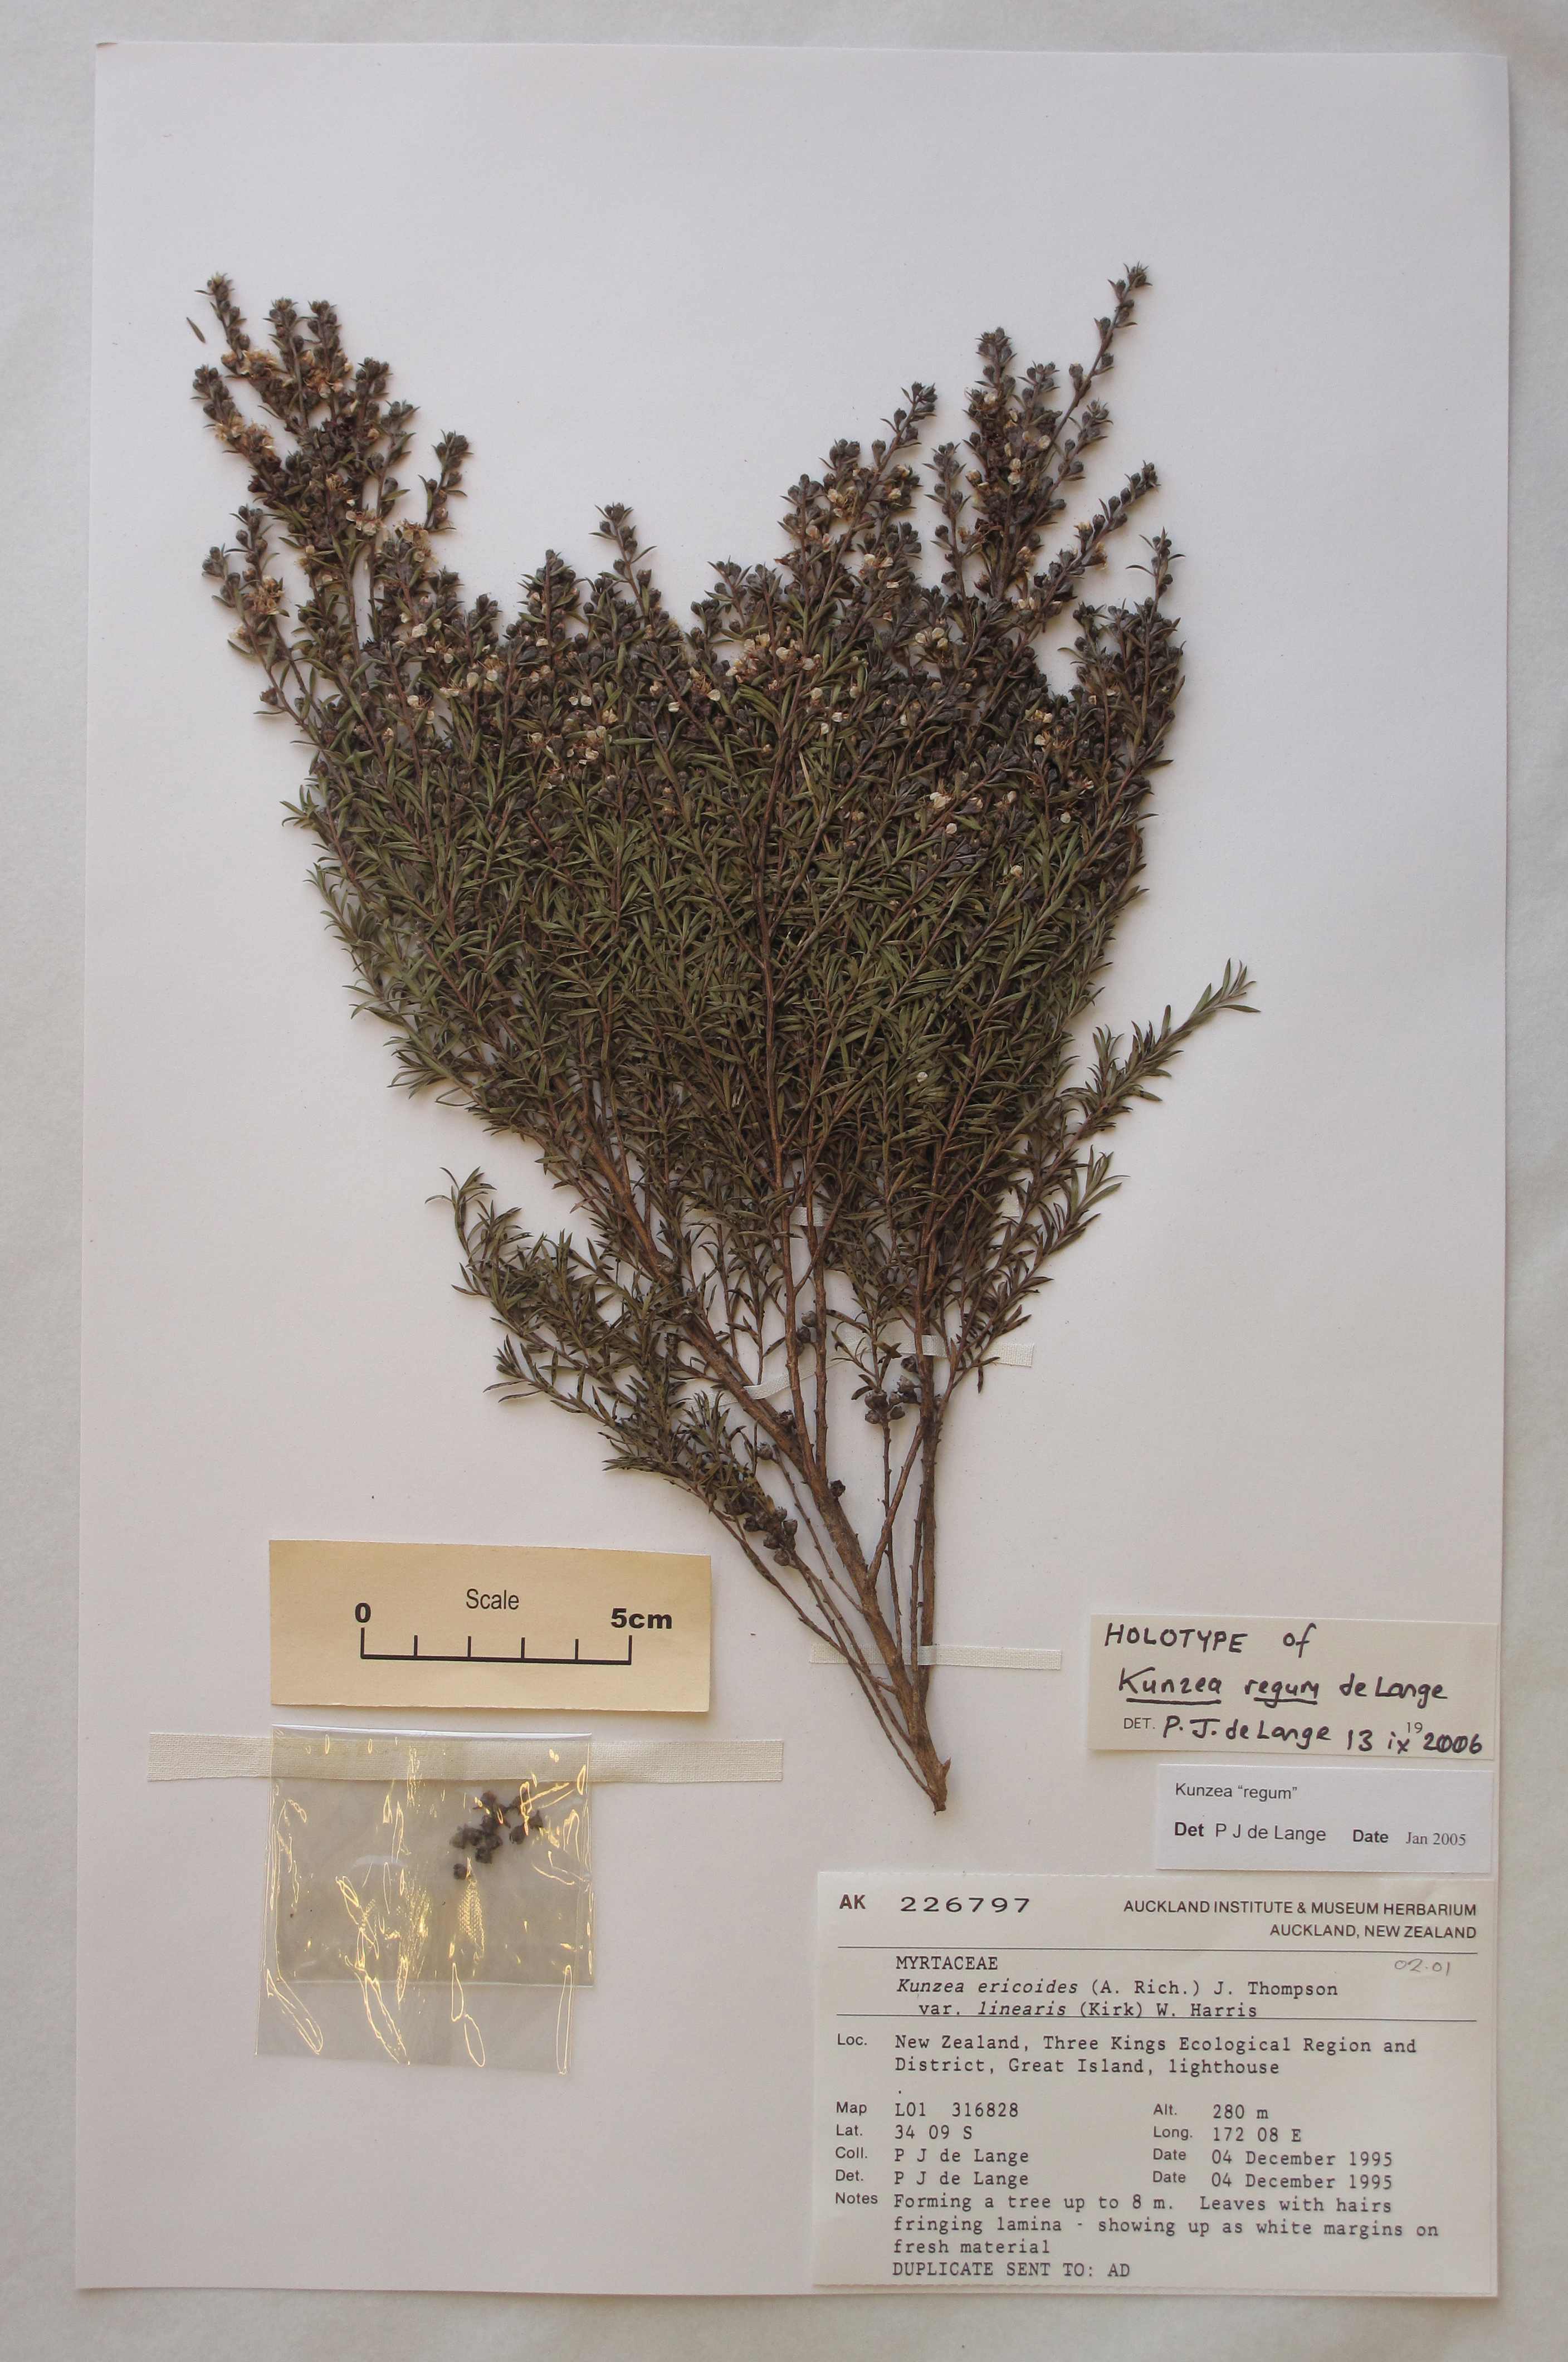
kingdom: Plantae
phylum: Tracheophyta
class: Magnoliopsida
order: Myrtales
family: Myrtaceae
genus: Kunzea
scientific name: Kunzea triregensis
